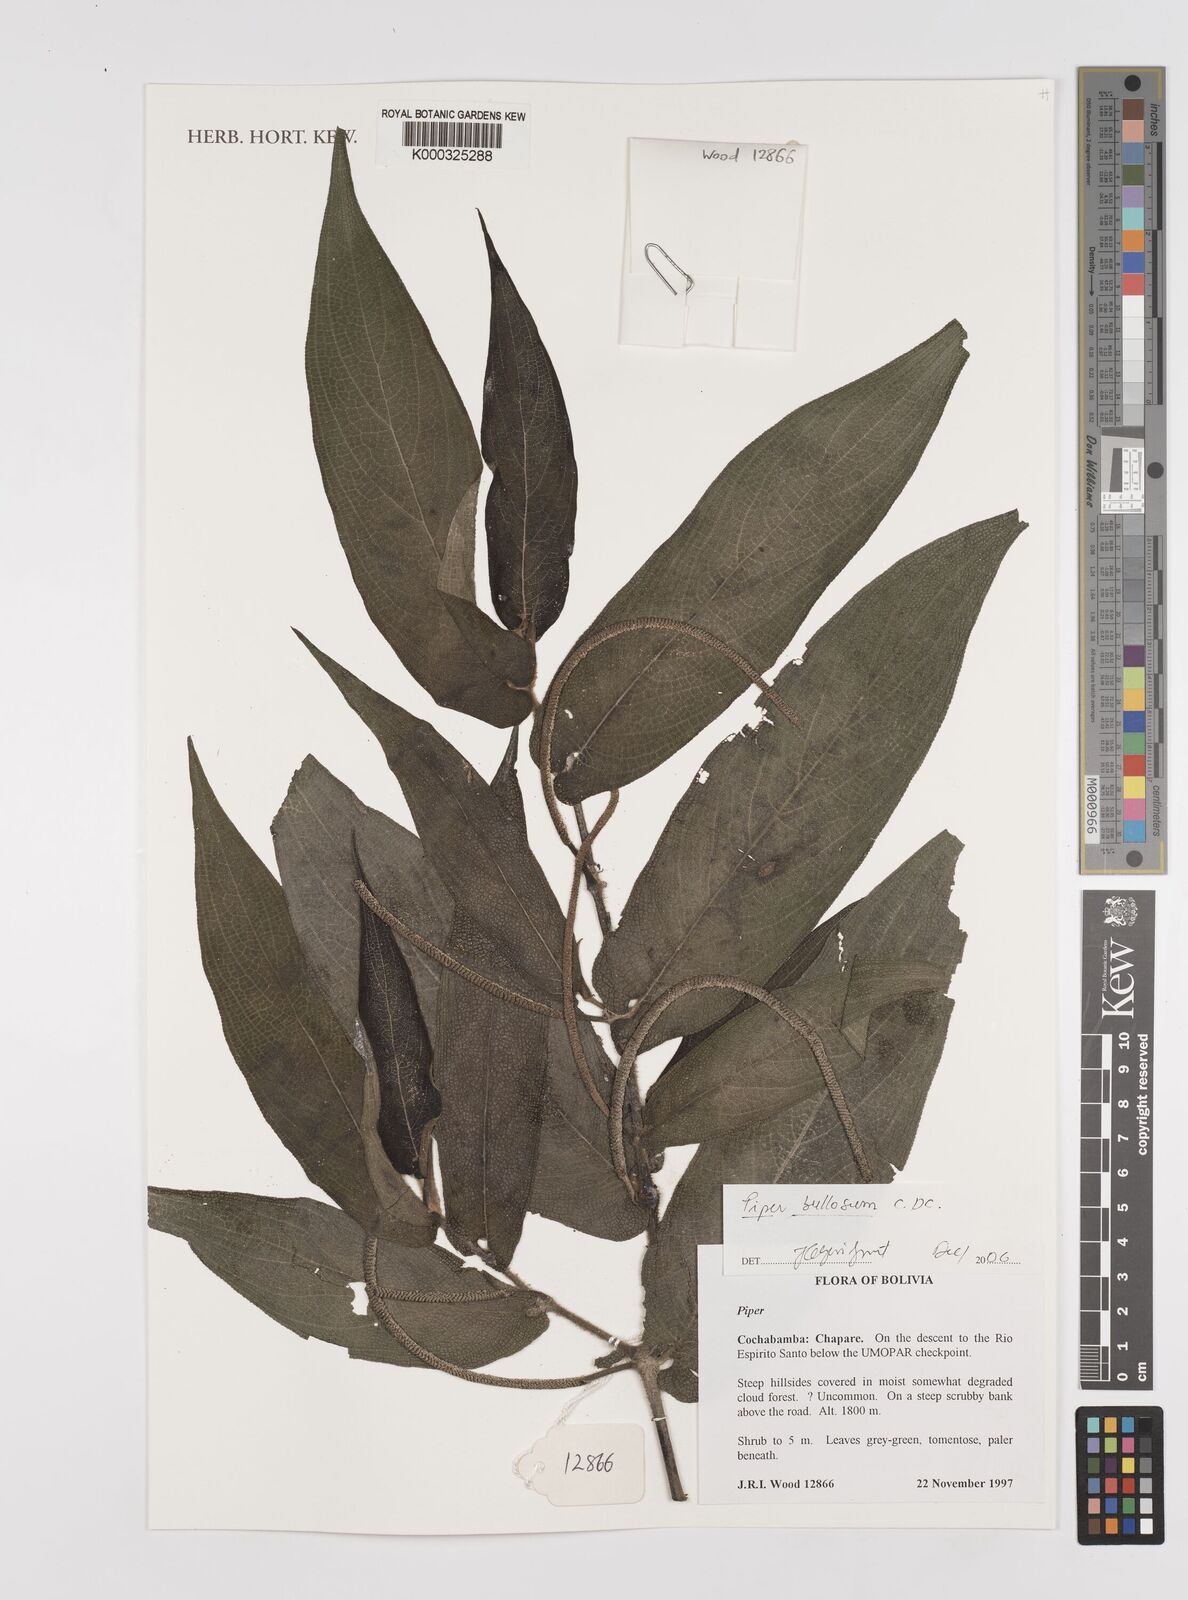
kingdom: Plantae
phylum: Tracheophyta
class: Magnoliopsida
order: Piperales
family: Piperaceae
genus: Piper
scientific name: Piper bullosum
